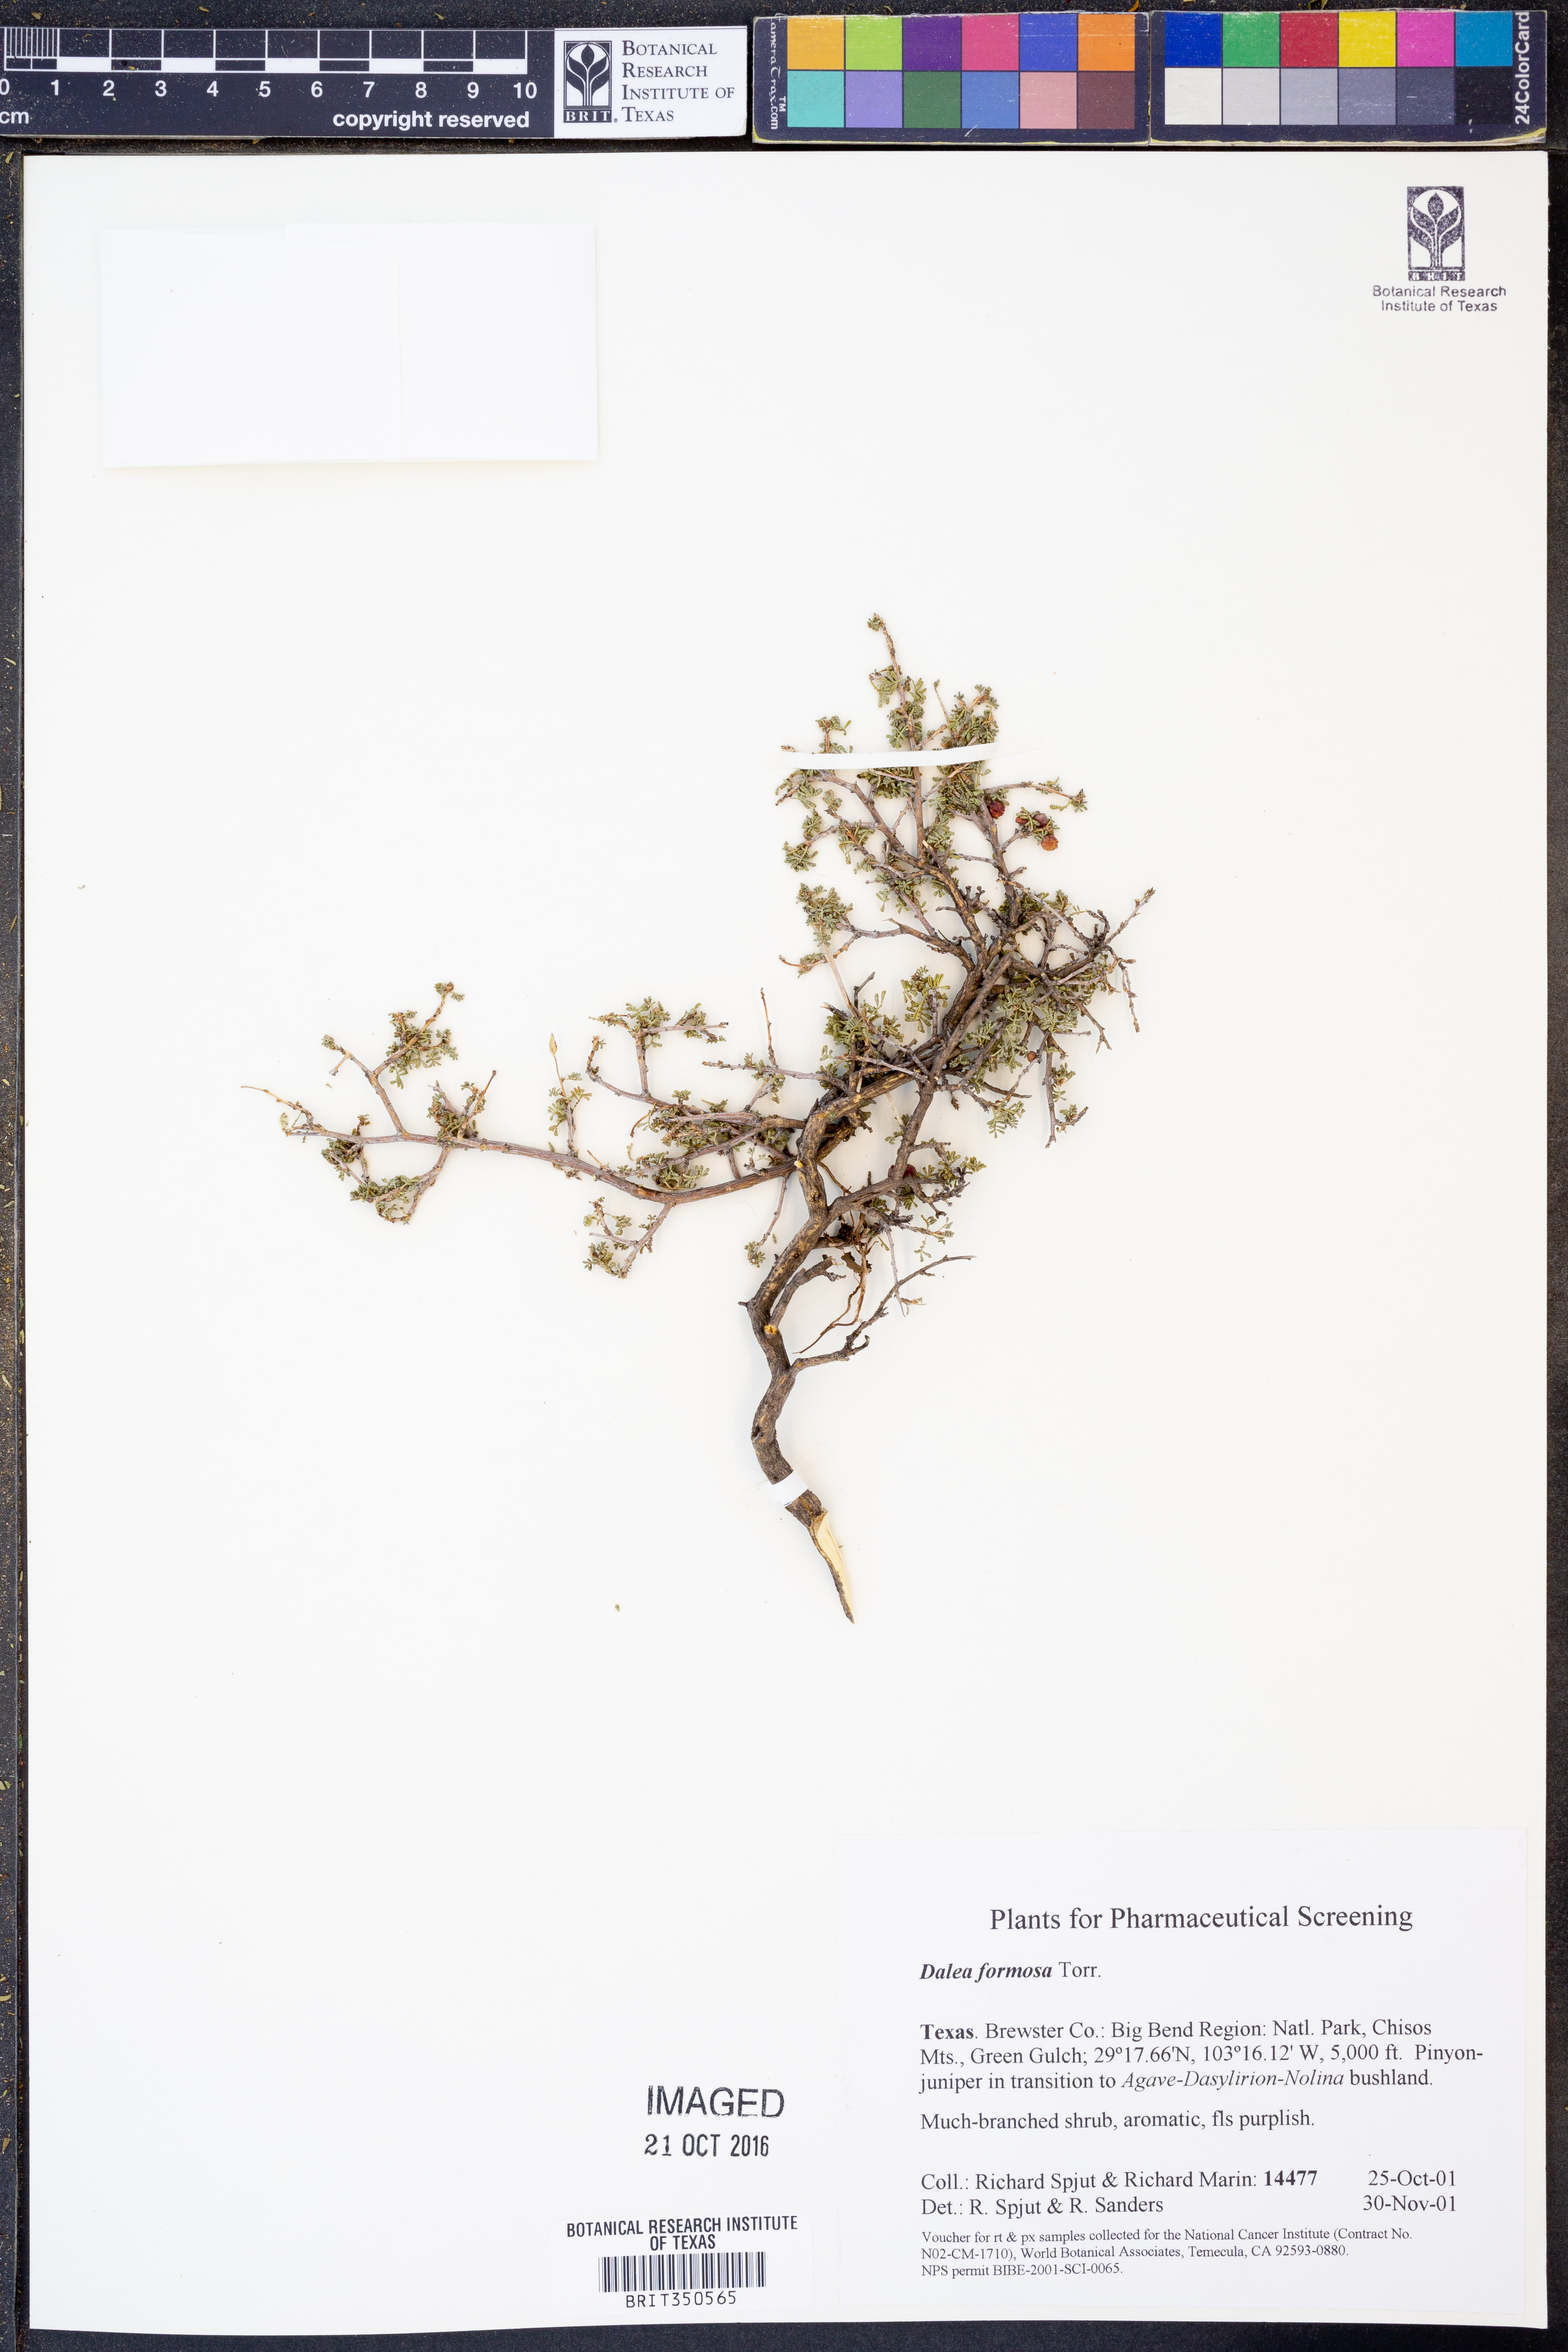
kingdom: Plantae
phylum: Tracheophyta
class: Magnoliopsida
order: Fabales
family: Fabaceae
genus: Dalea
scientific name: Dalea formosa
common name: Feather-plume dalea
